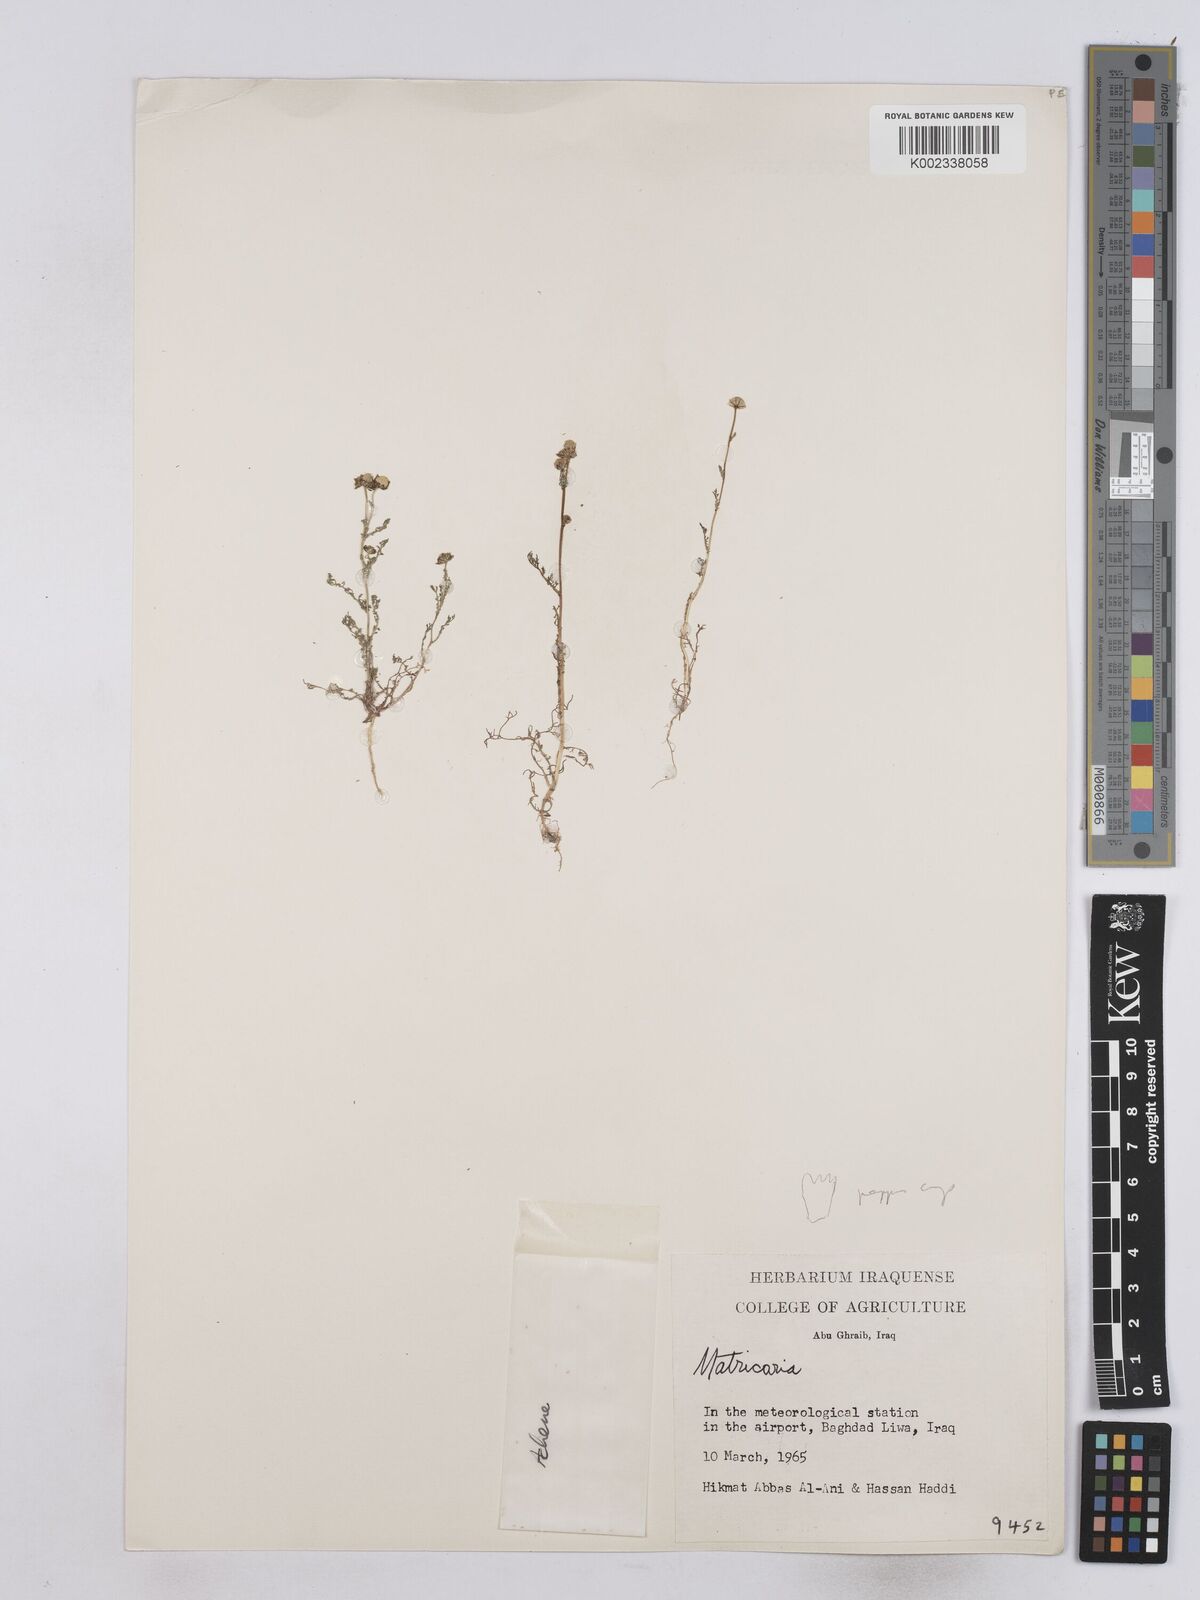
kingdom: Plantae
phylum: Tracheophyta
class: Magnoliopsida
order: Asterales
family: Asteraceae
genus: Matricaria
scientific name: Matricaria aurea
